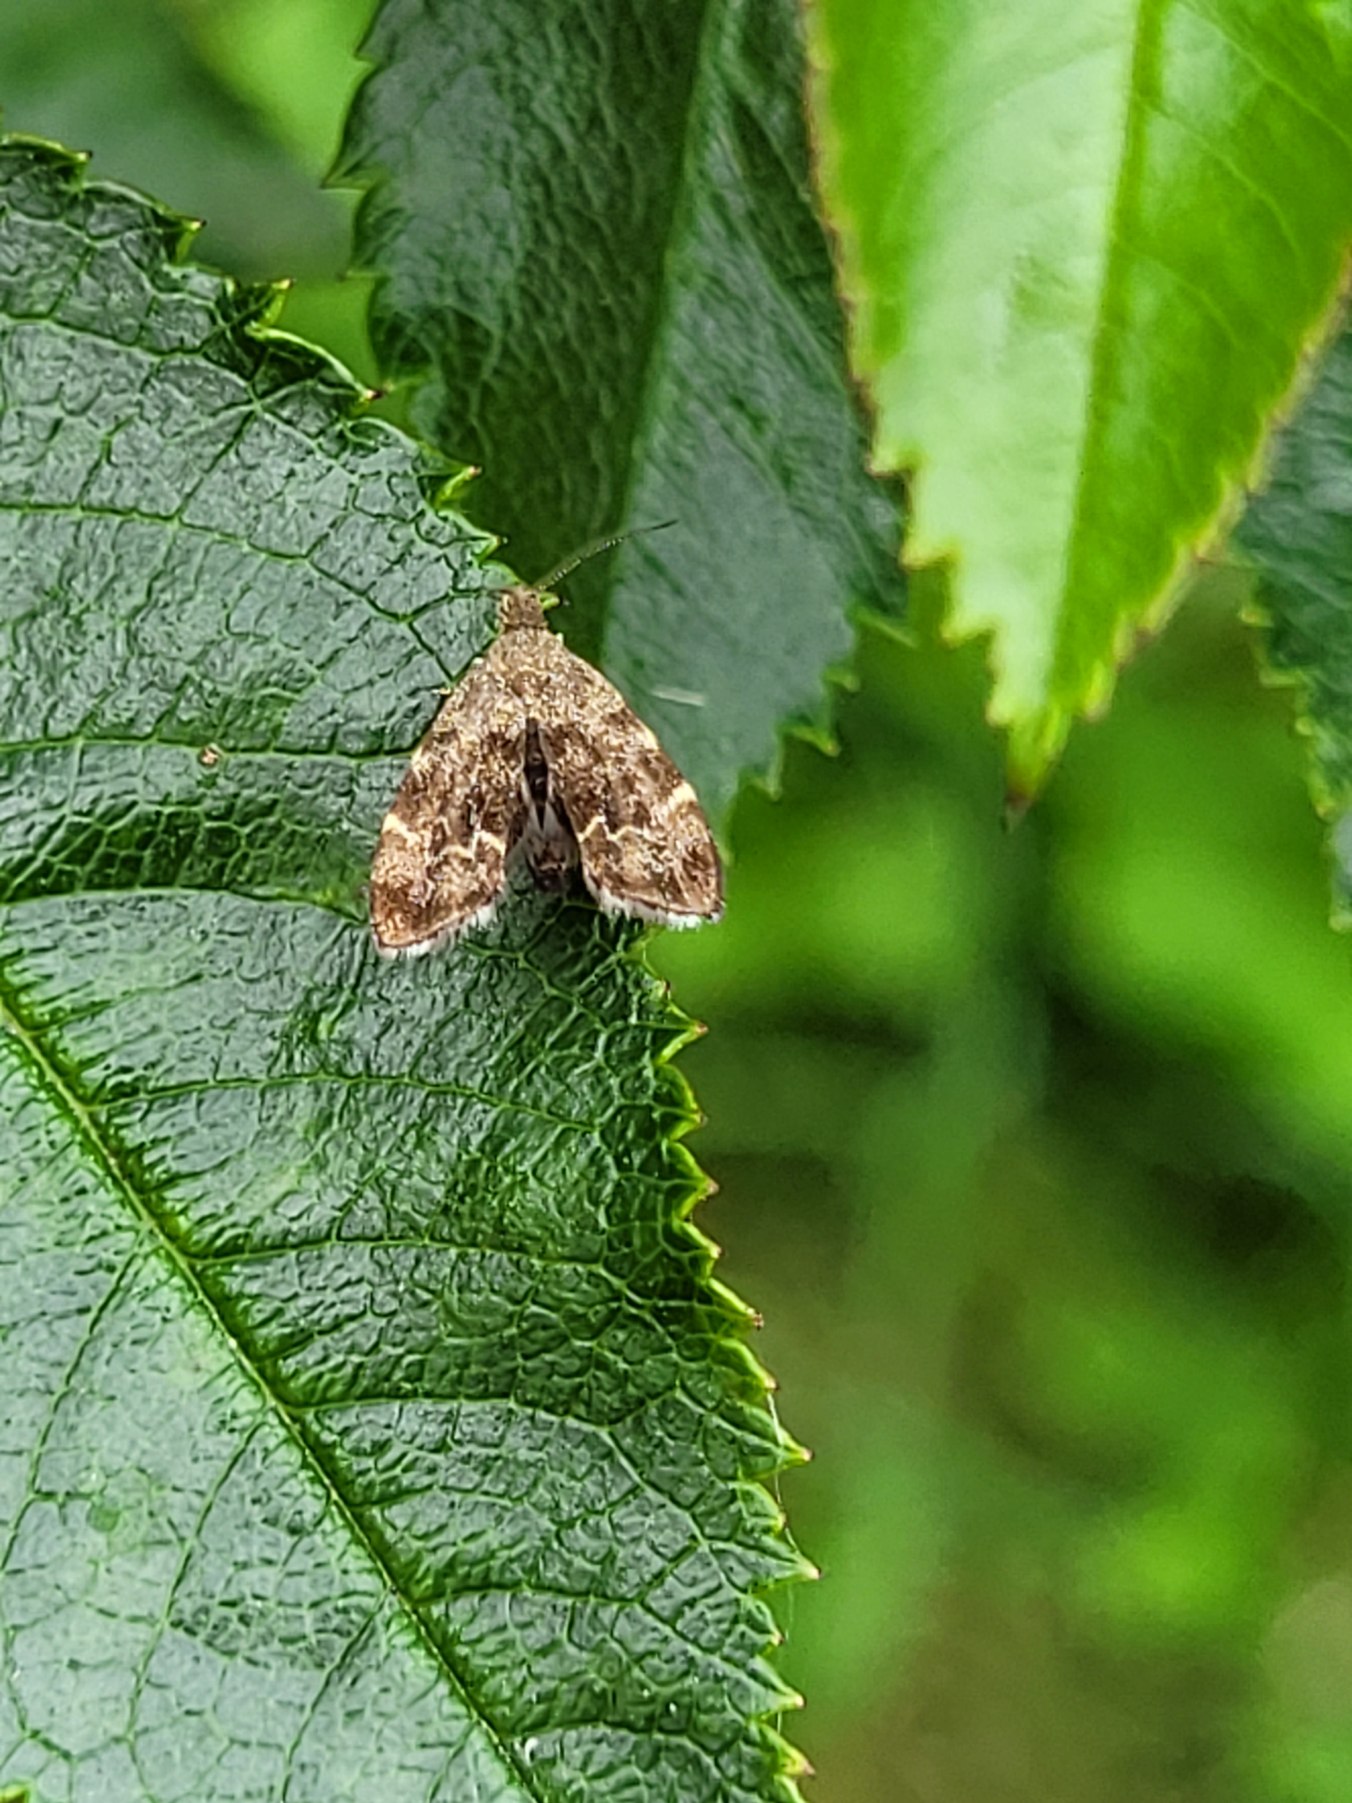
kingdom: Animalia
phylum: Arthropoda
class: Insecta
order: Lepidoptera
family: Choreutidae
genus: Anthophila
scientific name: Anthophila fabriciana
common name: Bredvinget nældevikler
